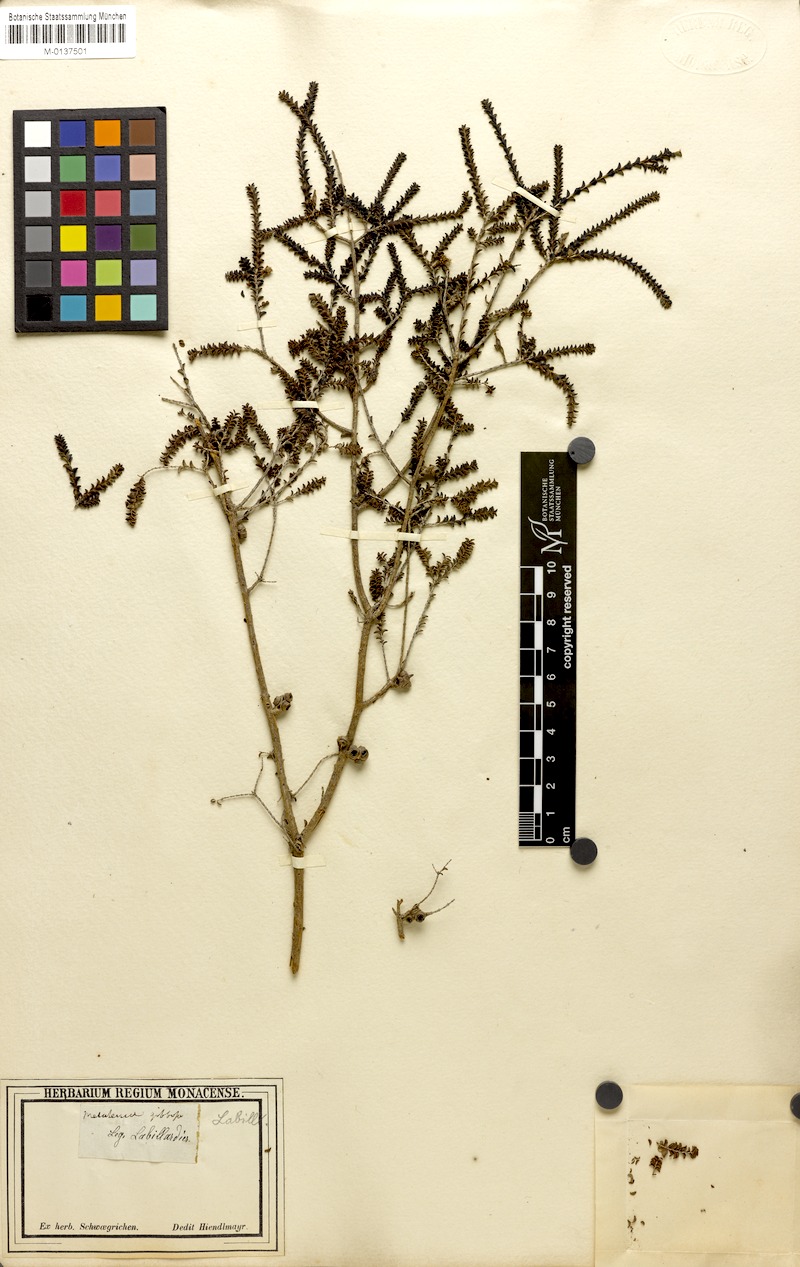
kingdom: Plantae
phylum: Tracheophyta
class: Magnoliopsida
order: Myrtales
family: Myrtaceae
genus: Melaleuca
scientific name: Melaleuca gibbosa
